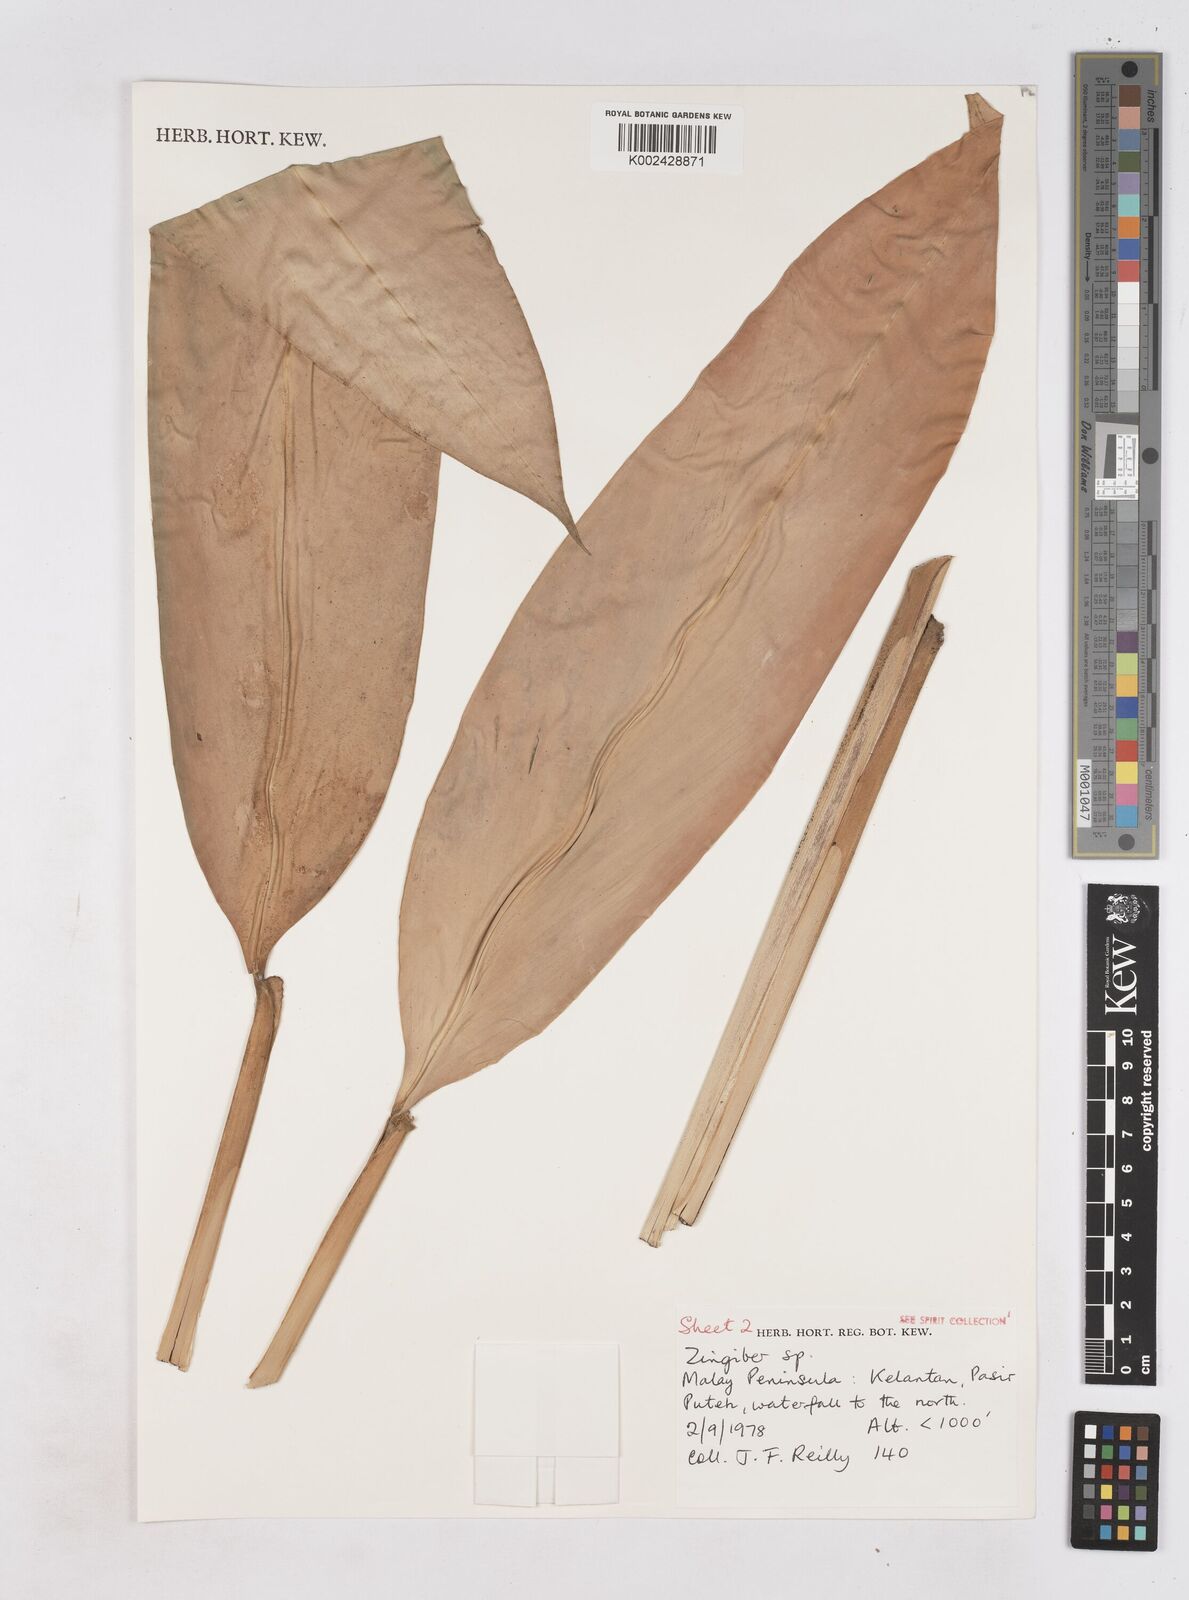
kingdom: Plantae
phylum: Tracheophyta
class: Liliopsida
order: Zingiberales
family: Zingiberaceae
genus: Zingiber
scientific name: Zingiber
